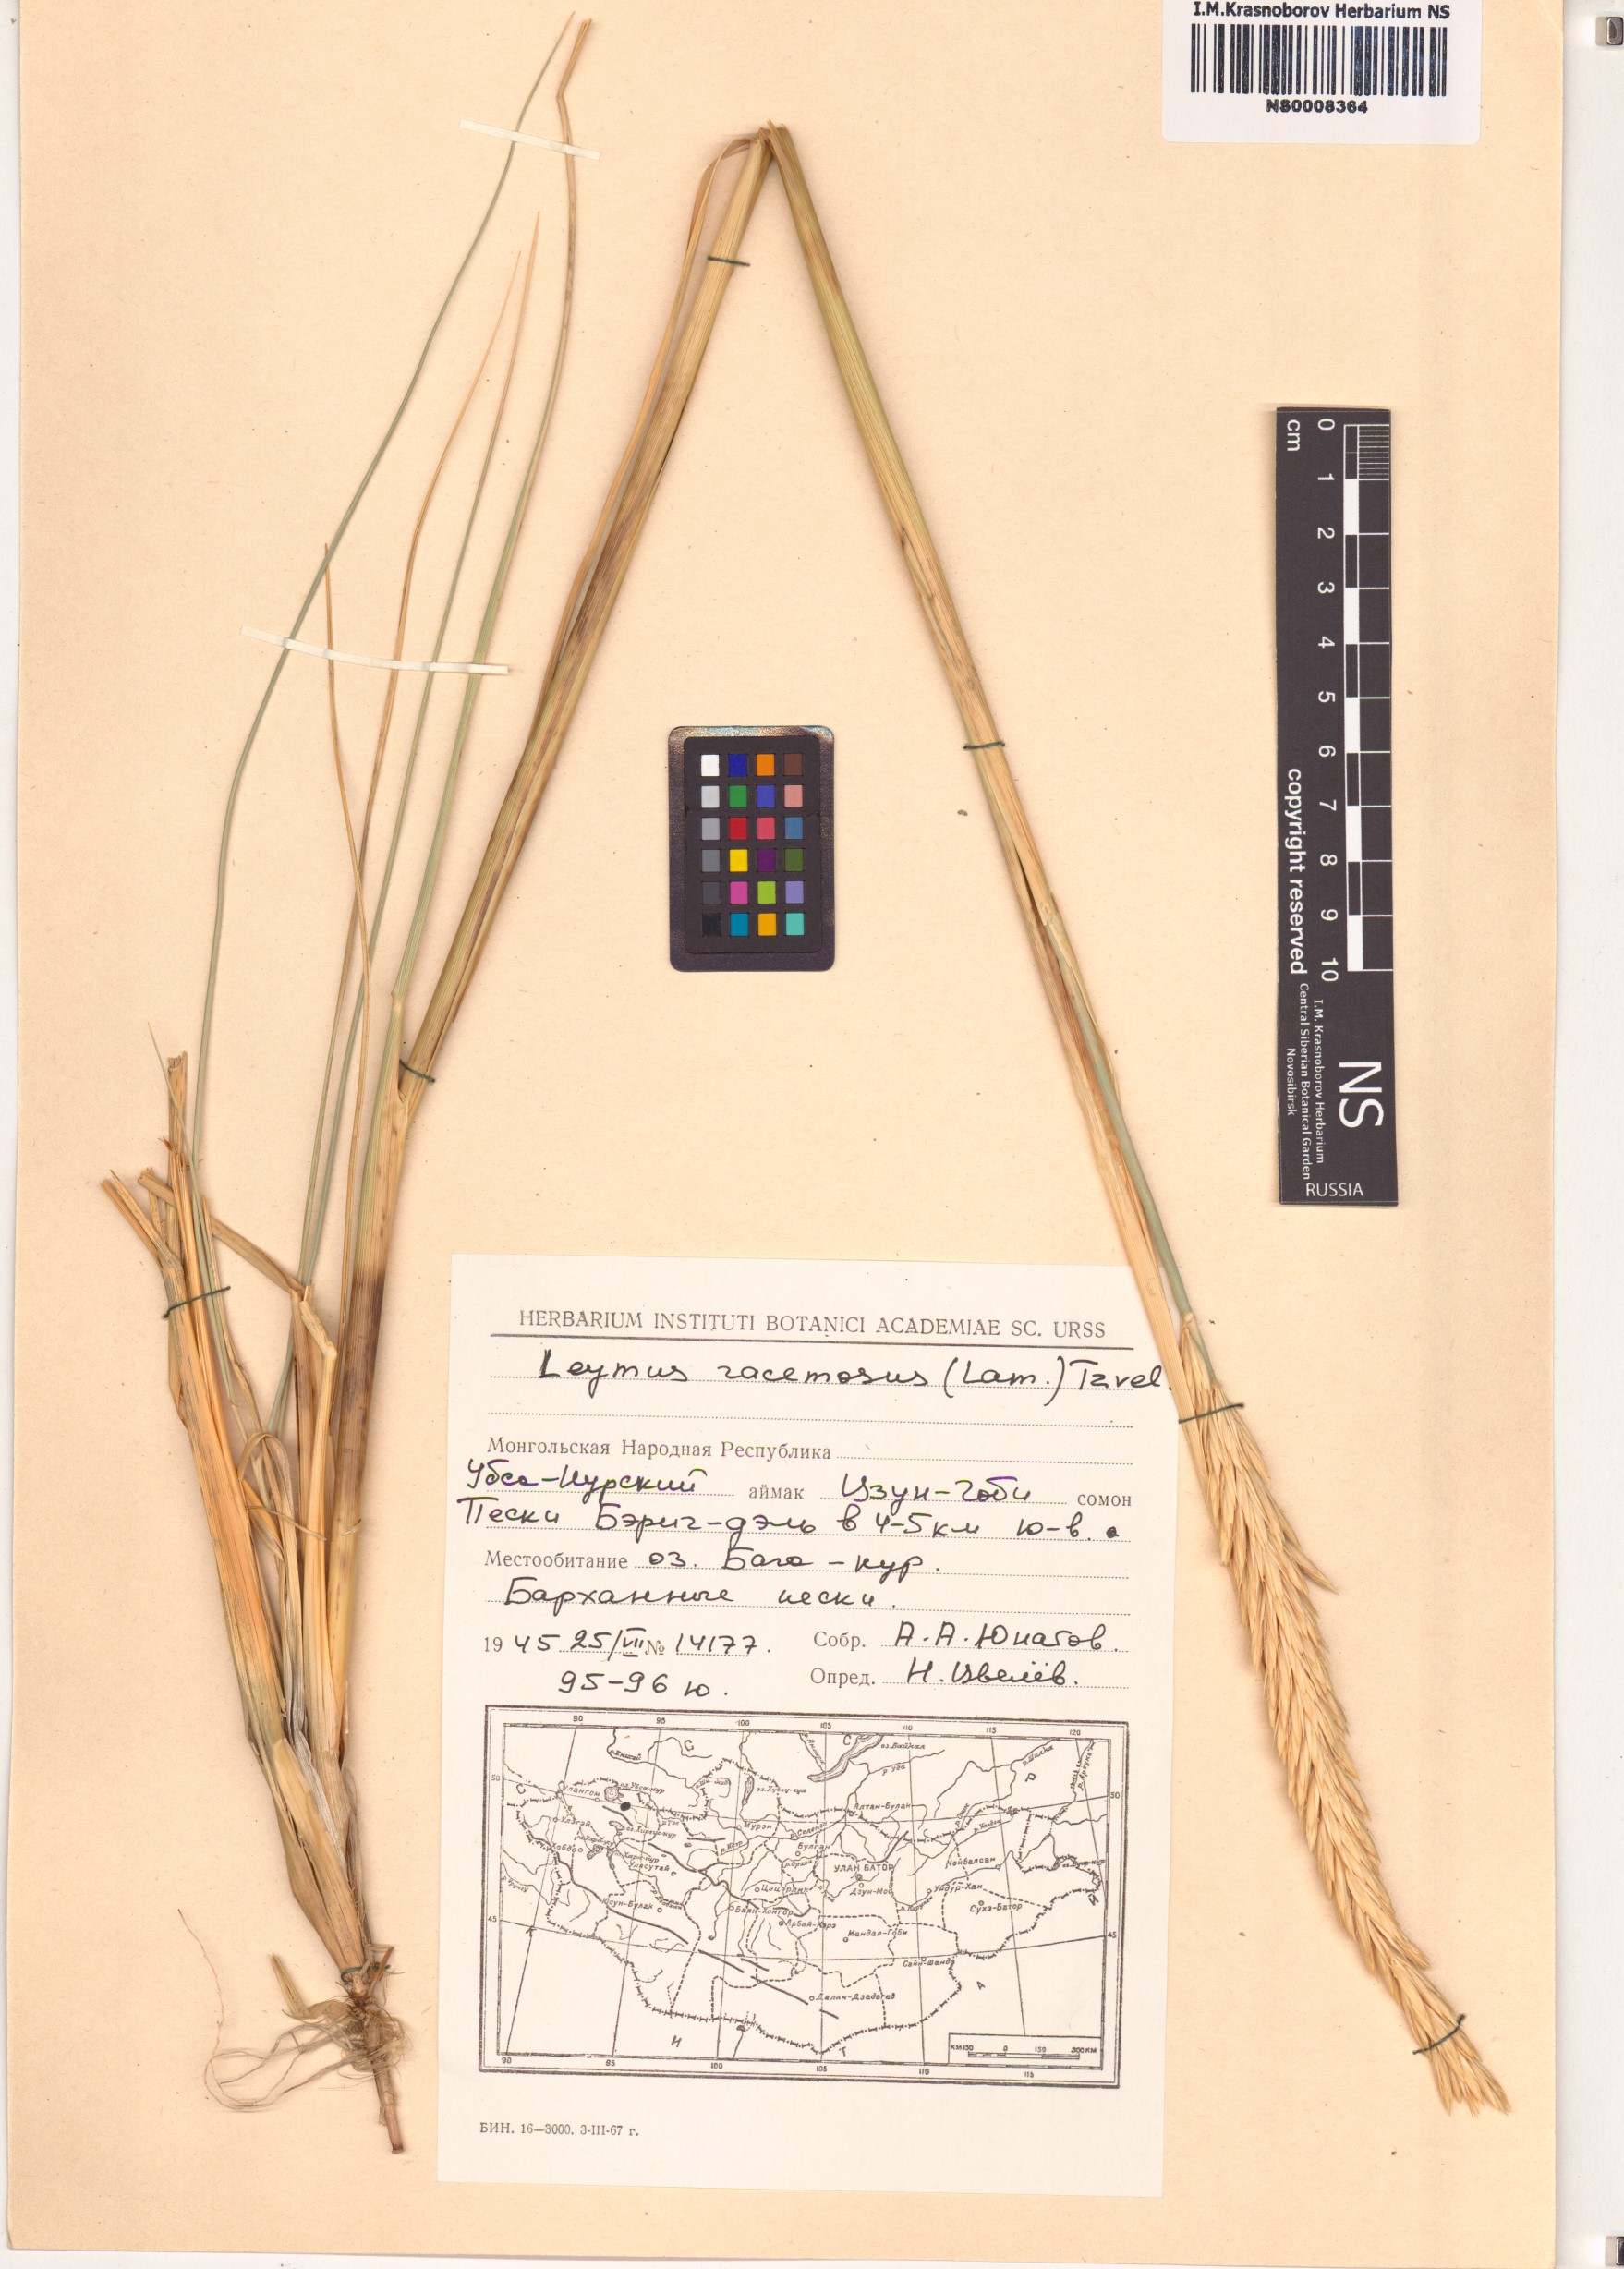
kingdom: Plantae
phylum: Tracheophyta
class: Liliopsida
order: Poales
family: Poaceae
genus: Leymus
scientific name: Leymus racemosus
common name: Mammoth wildrye
